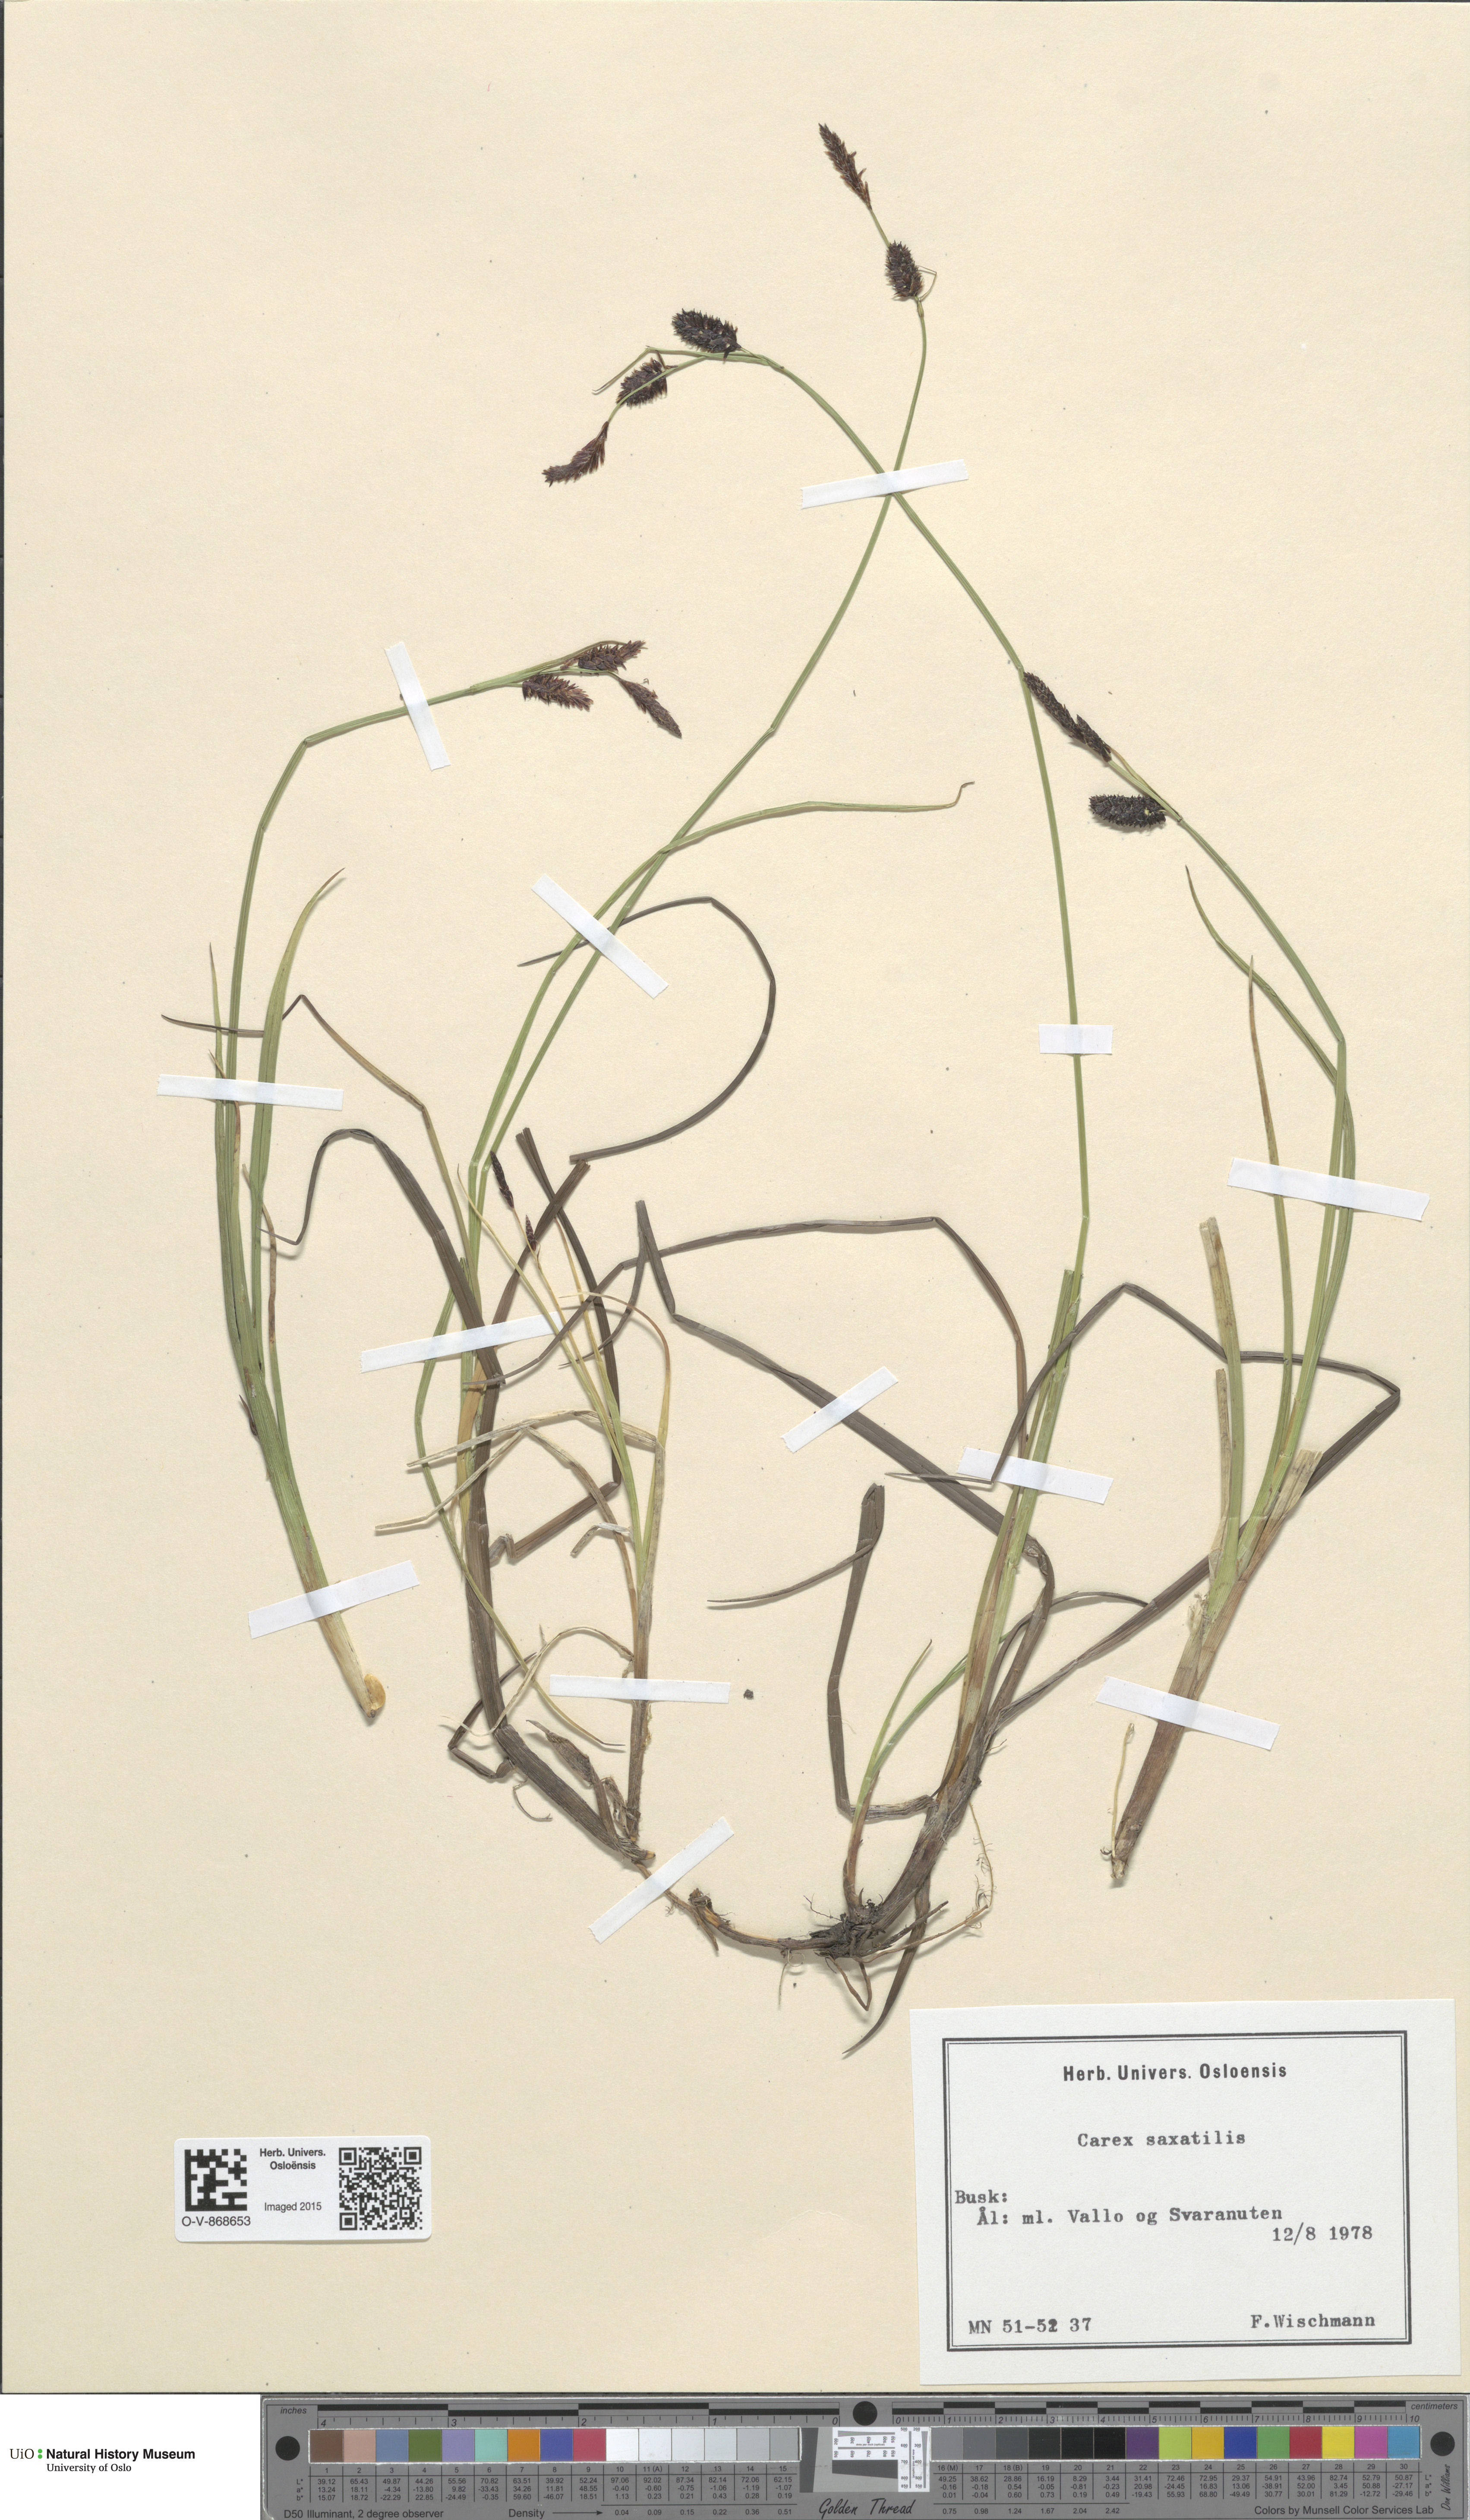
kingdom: Plantae
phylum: Tracheophyta
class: Liliopsida
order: Poales
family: Cyperaceae
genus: Carex
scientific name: Carex saxatilis
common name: Russet sedge
